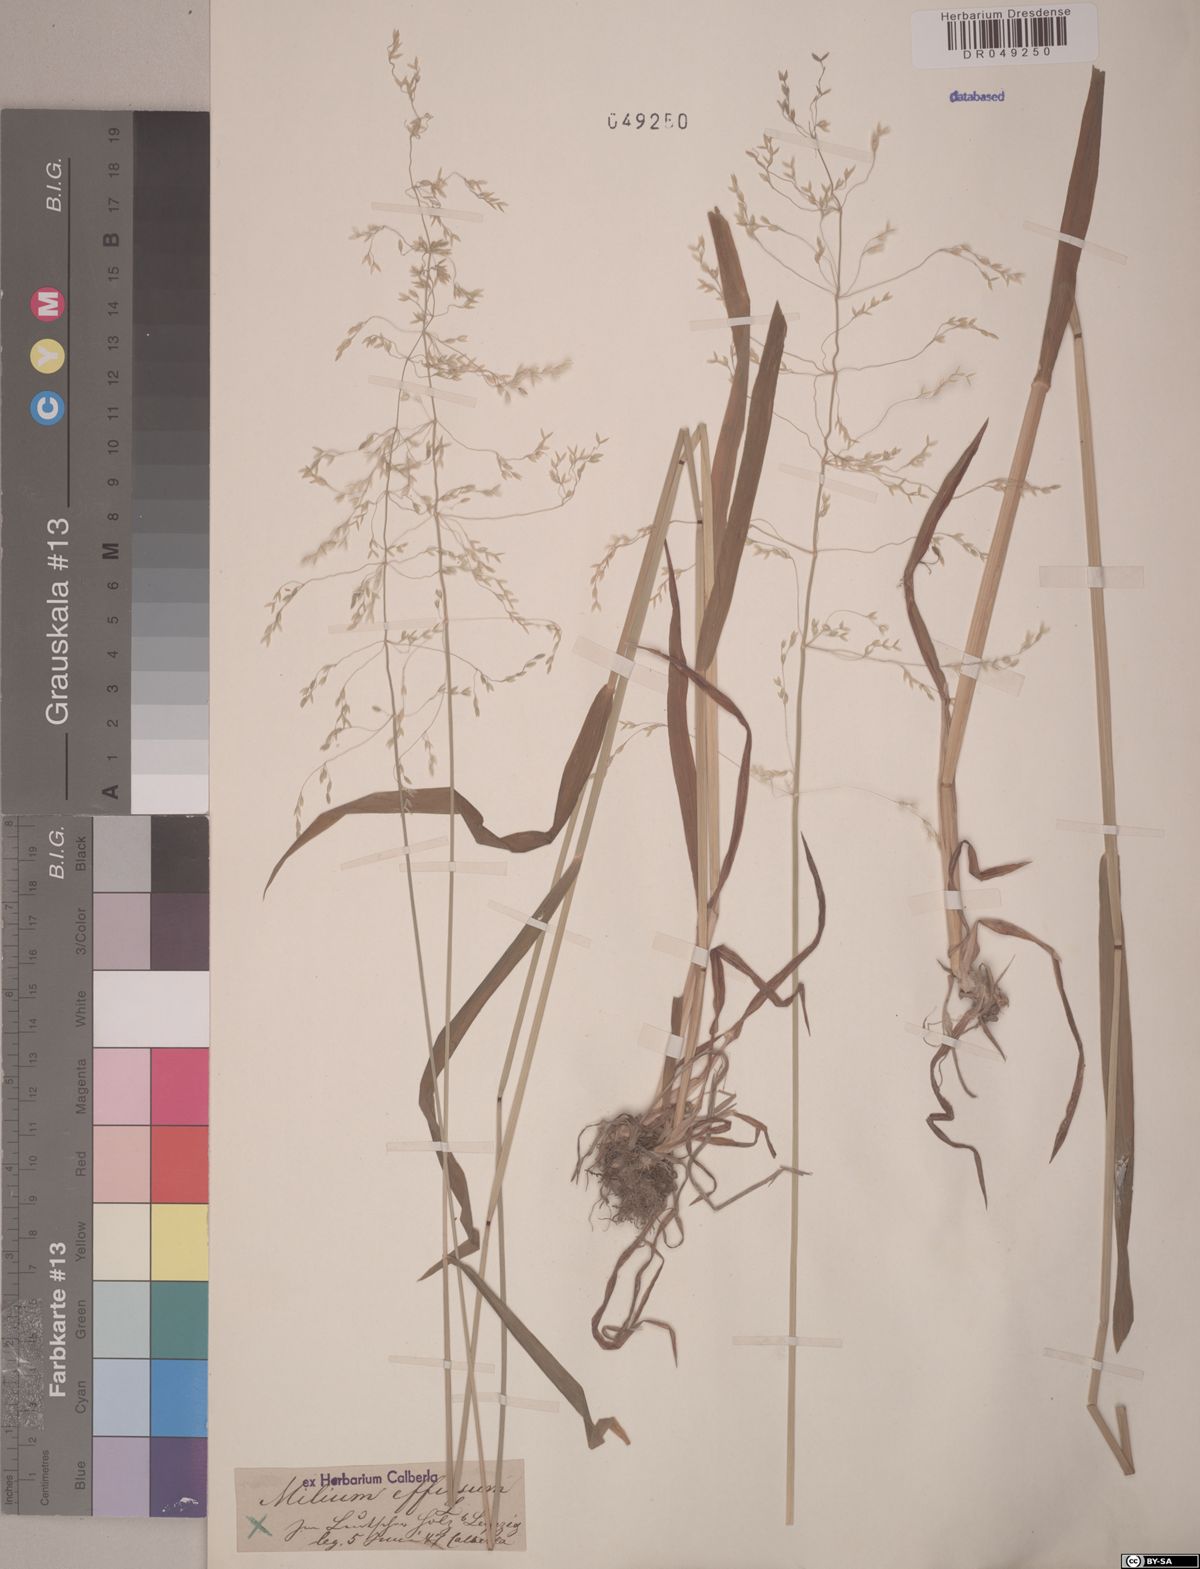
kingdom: Plantae
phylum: Tracheophyta
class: Liliopsida
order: Poales
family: Poaceae
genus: Milium
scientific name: Milium effusum
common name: Wood millet
